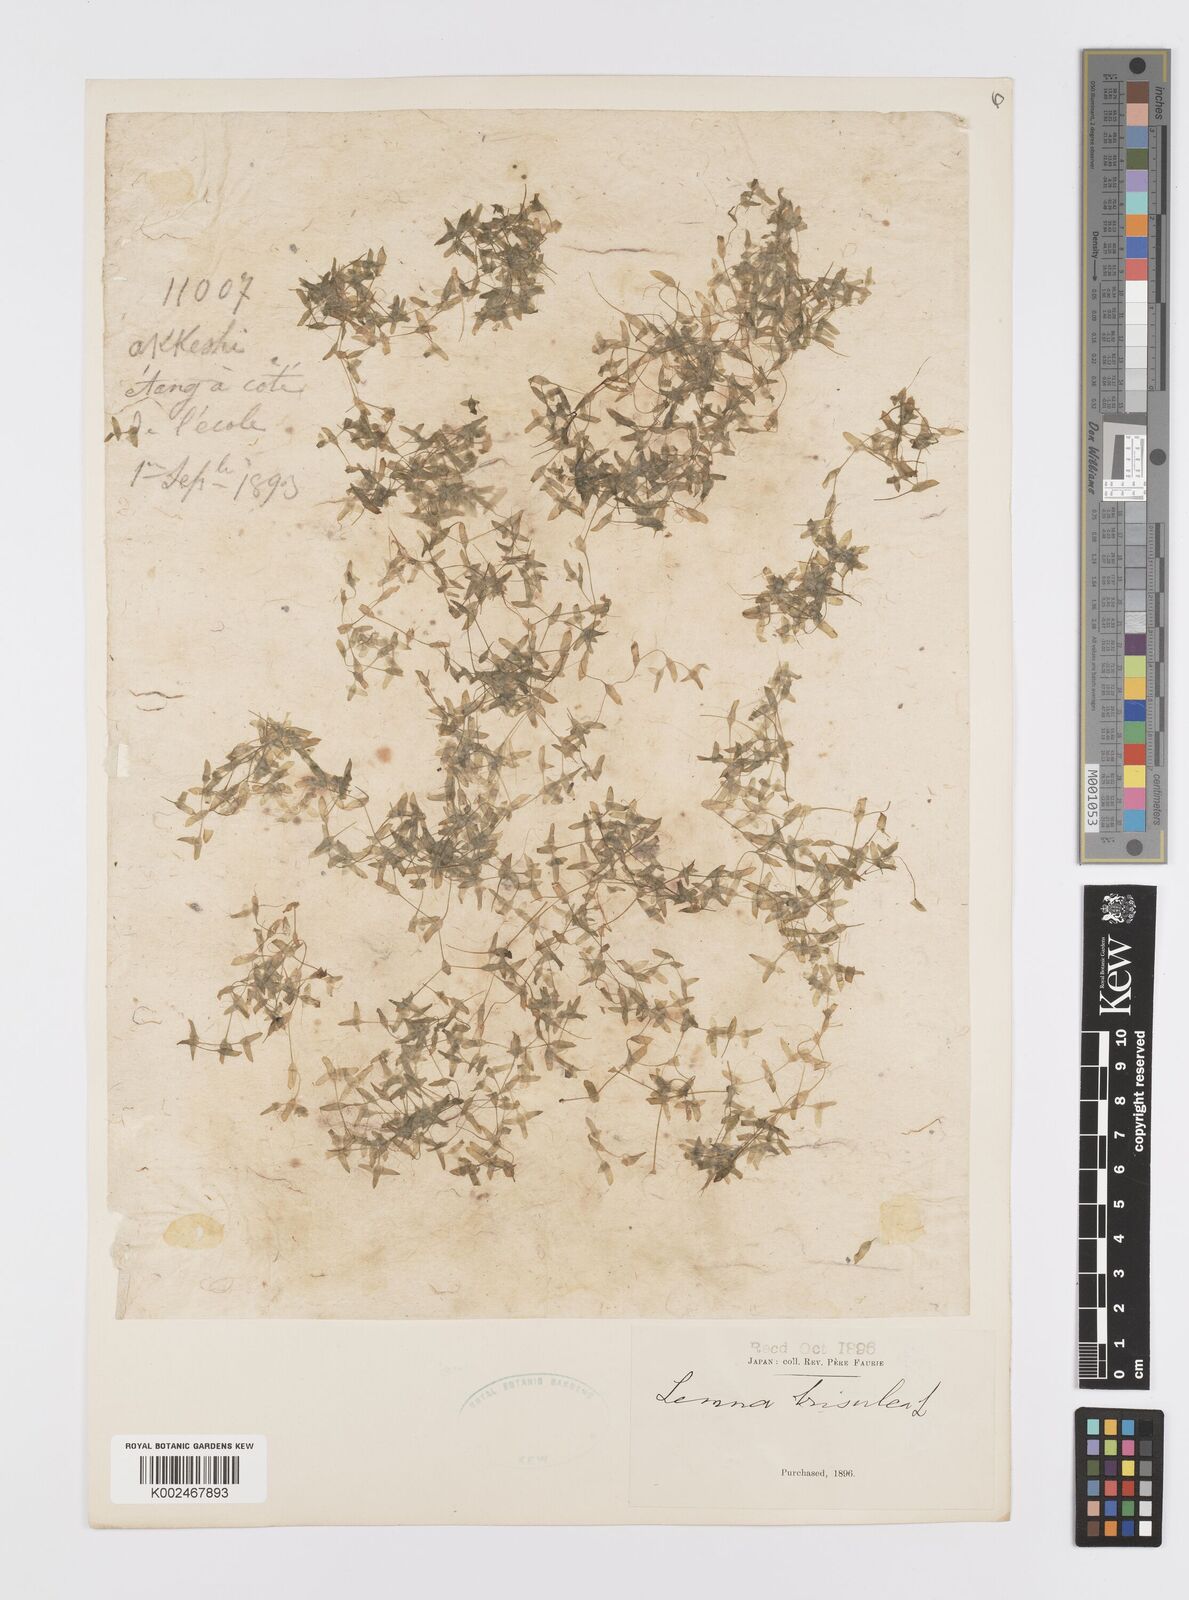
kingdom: Plantae
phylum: Tracheophyta
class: Liliopsida
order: Alismatales
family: Araceae
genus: Lemna
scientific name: Lemna trisulca
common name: Ivy-leaved duckweed
